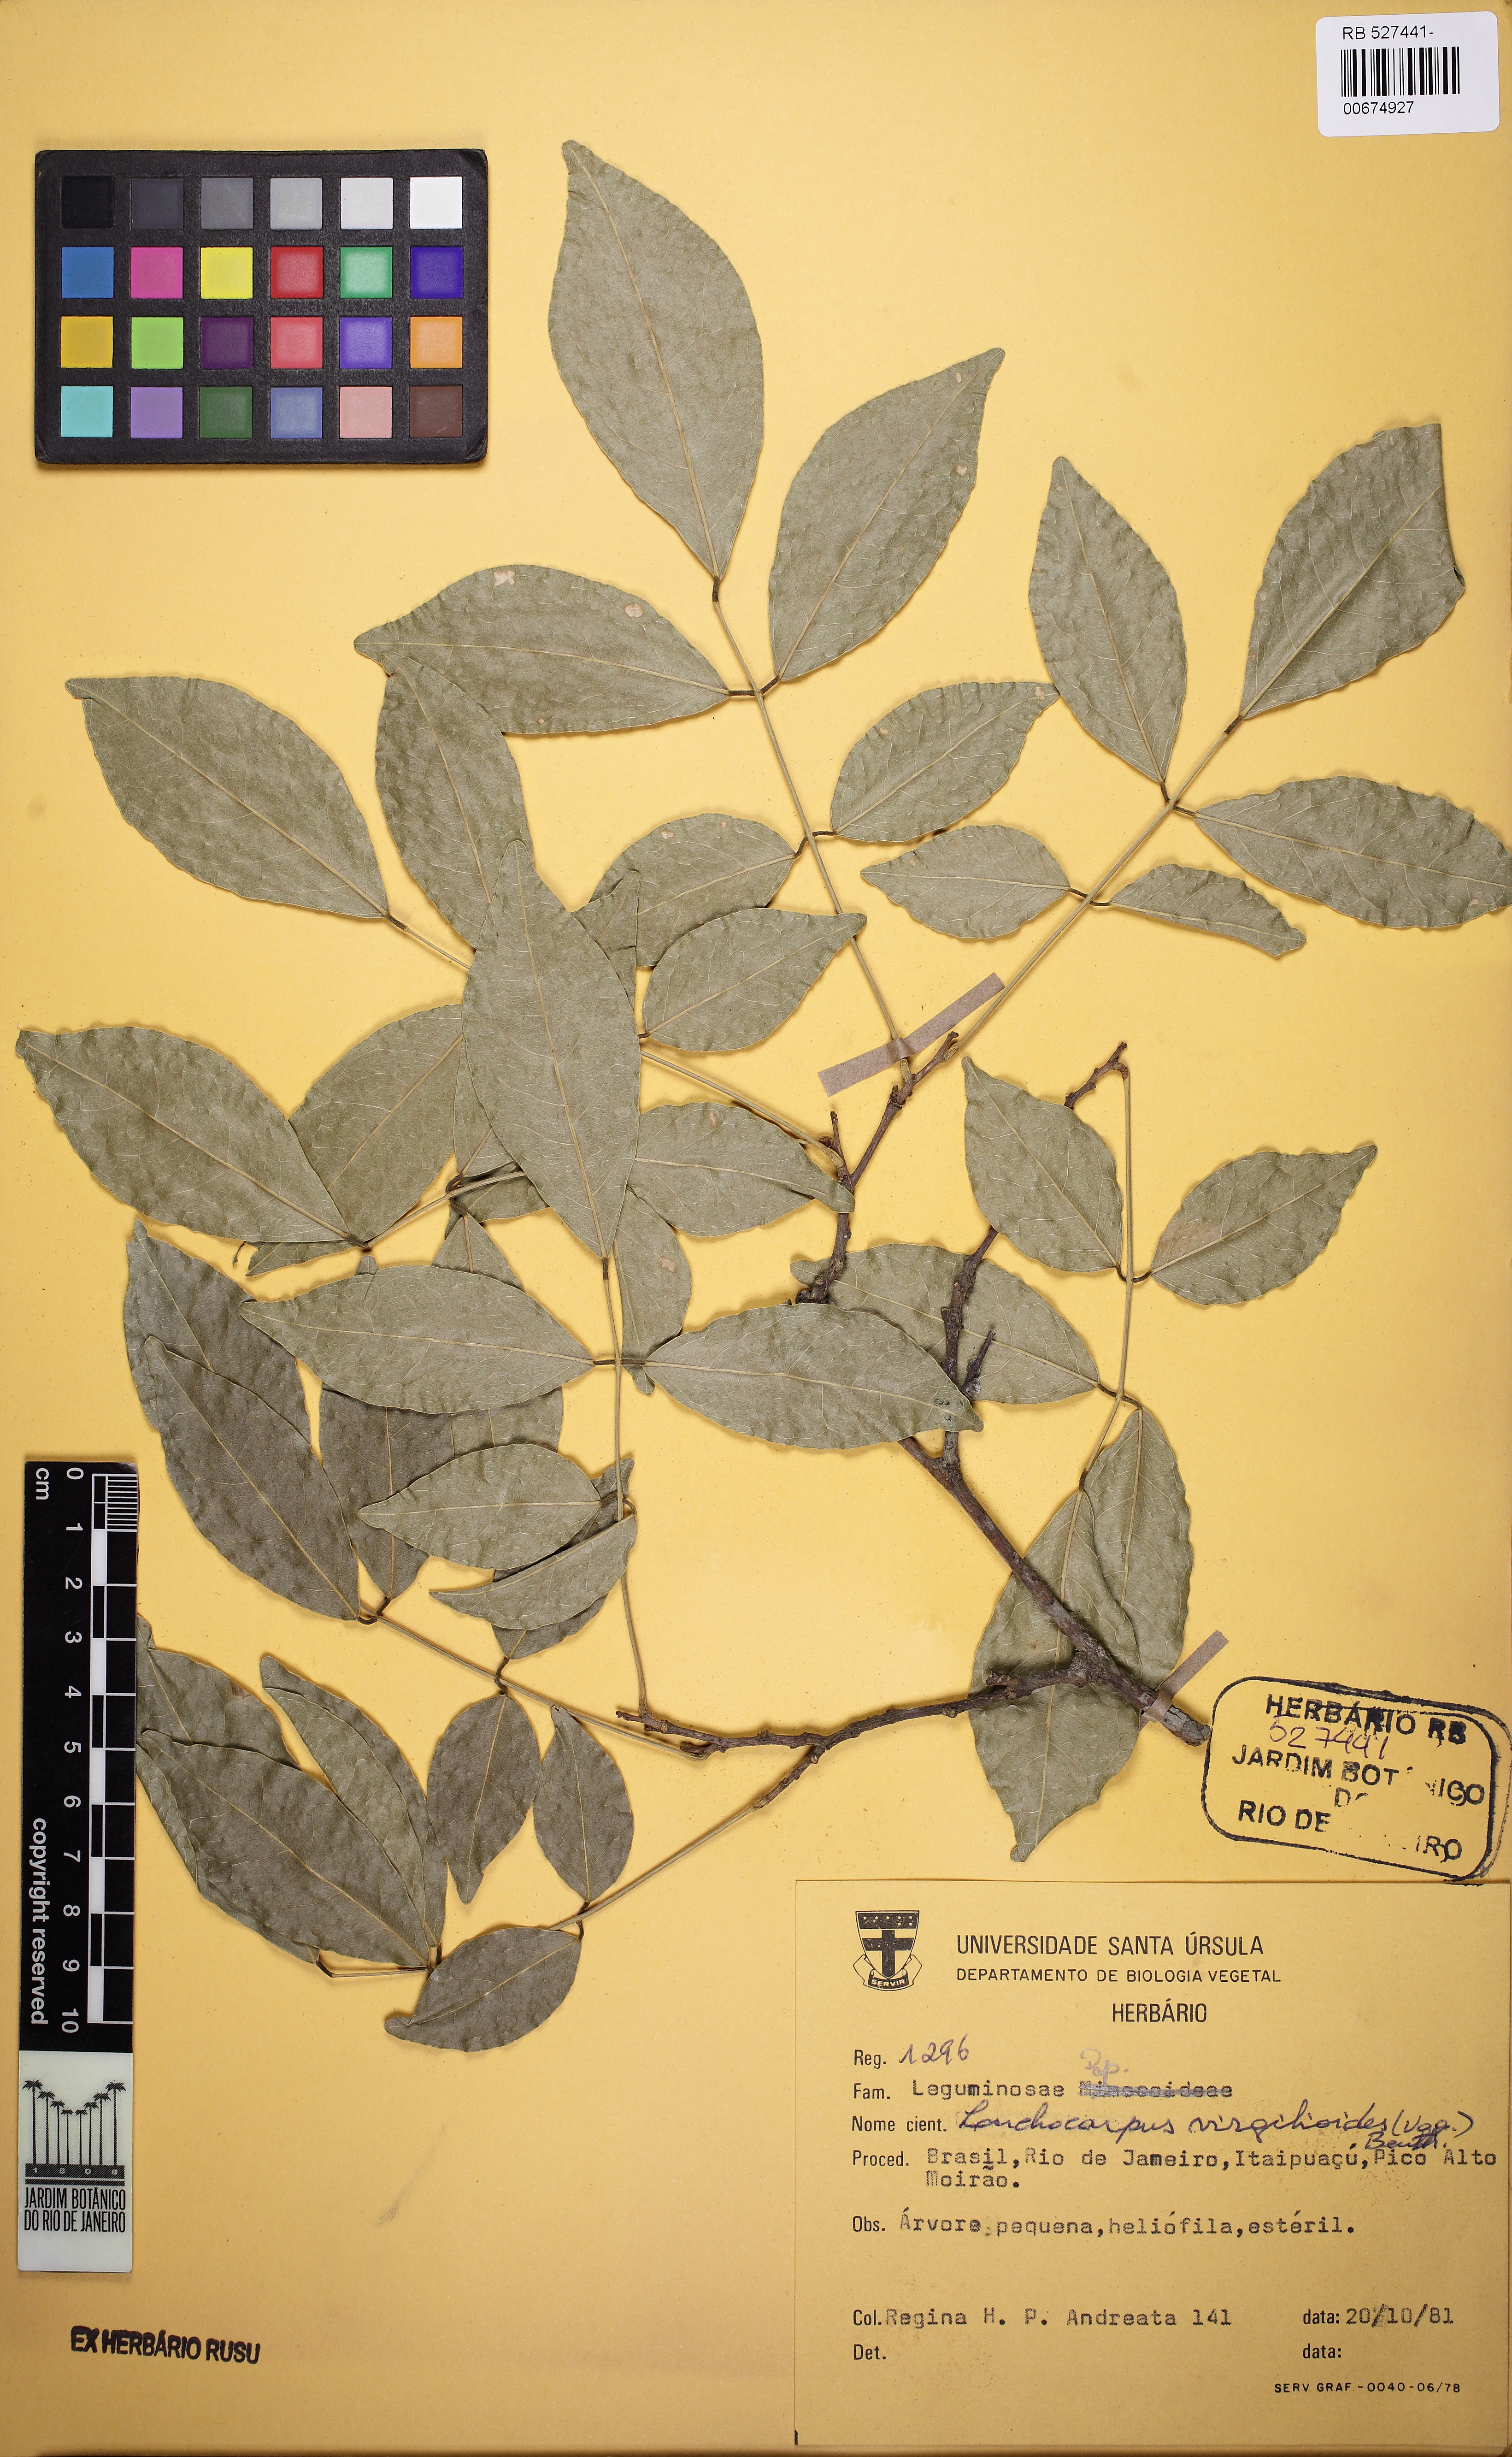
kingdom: Plantae
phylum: Tracheophyta
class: Magnoliopsida
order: Fabales
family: Fabaceae
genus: Muellera
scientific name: Muellera virgilioides
